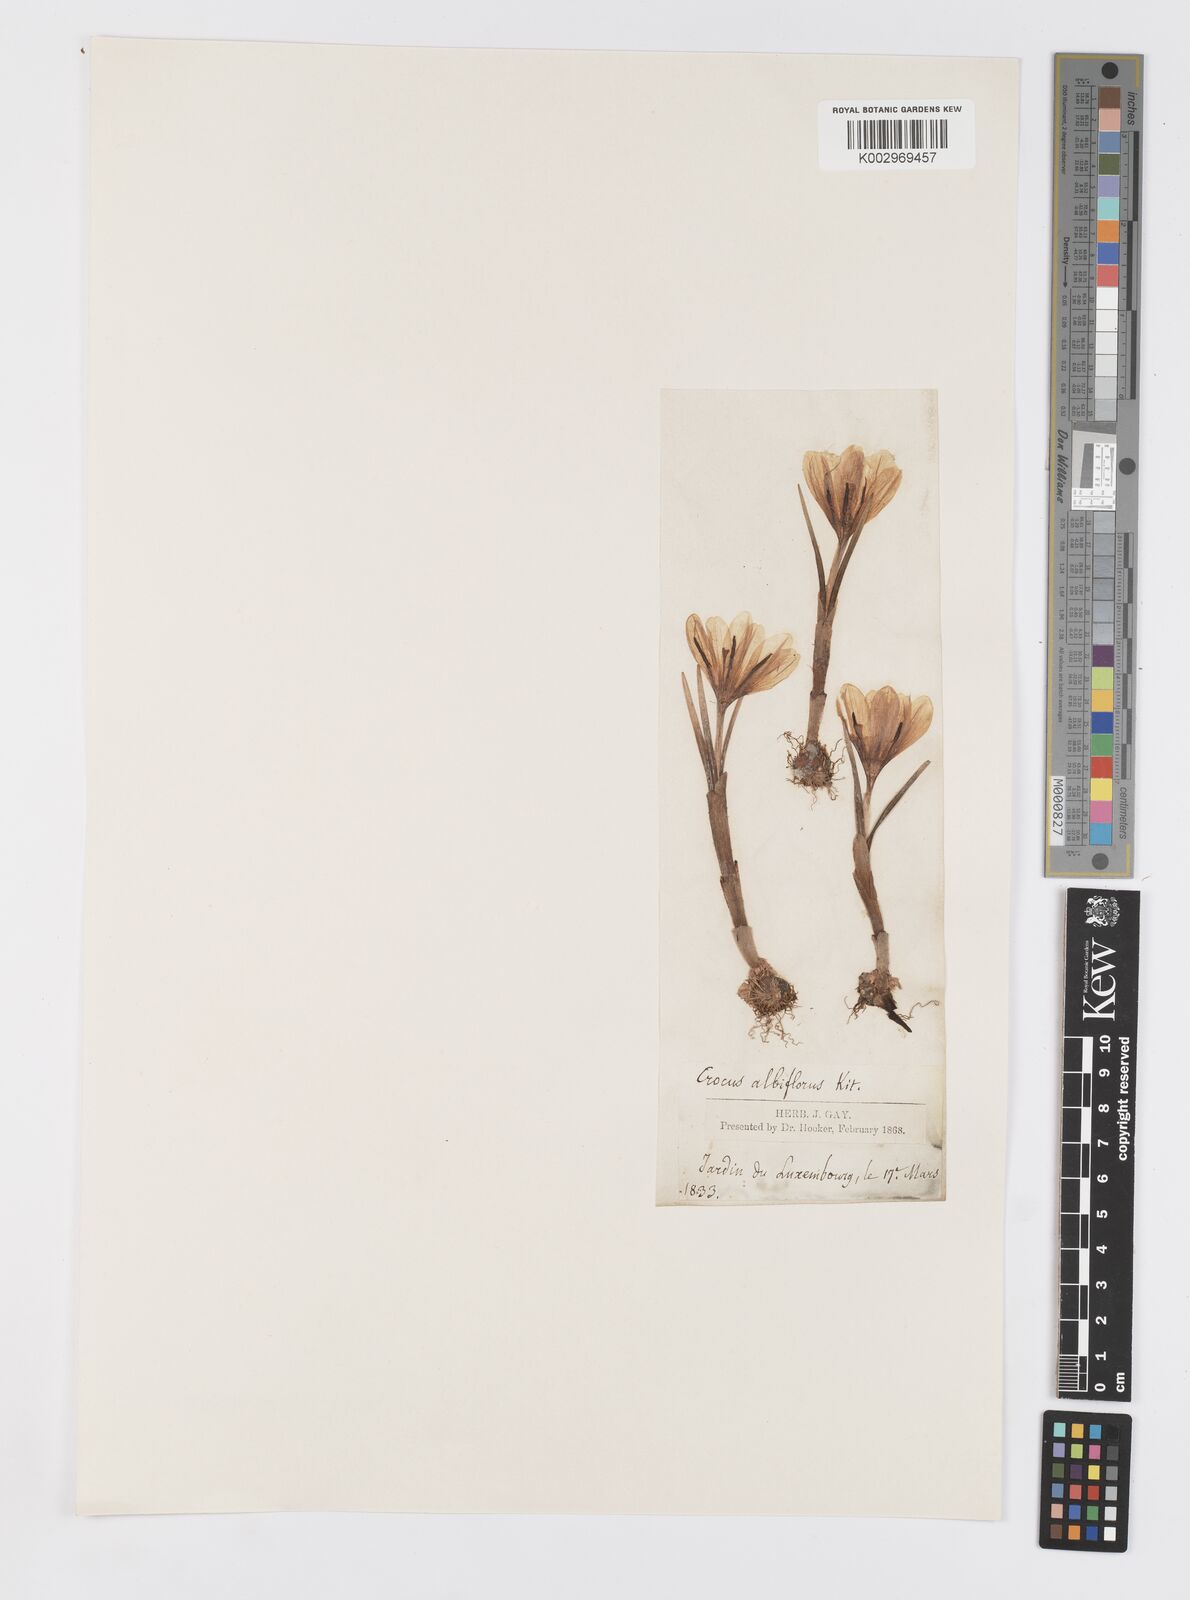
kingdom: Plantae
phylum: Tracheophyta
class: Liliopsida
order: Asparagales
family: Iridaceae
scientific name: Iridaceae
